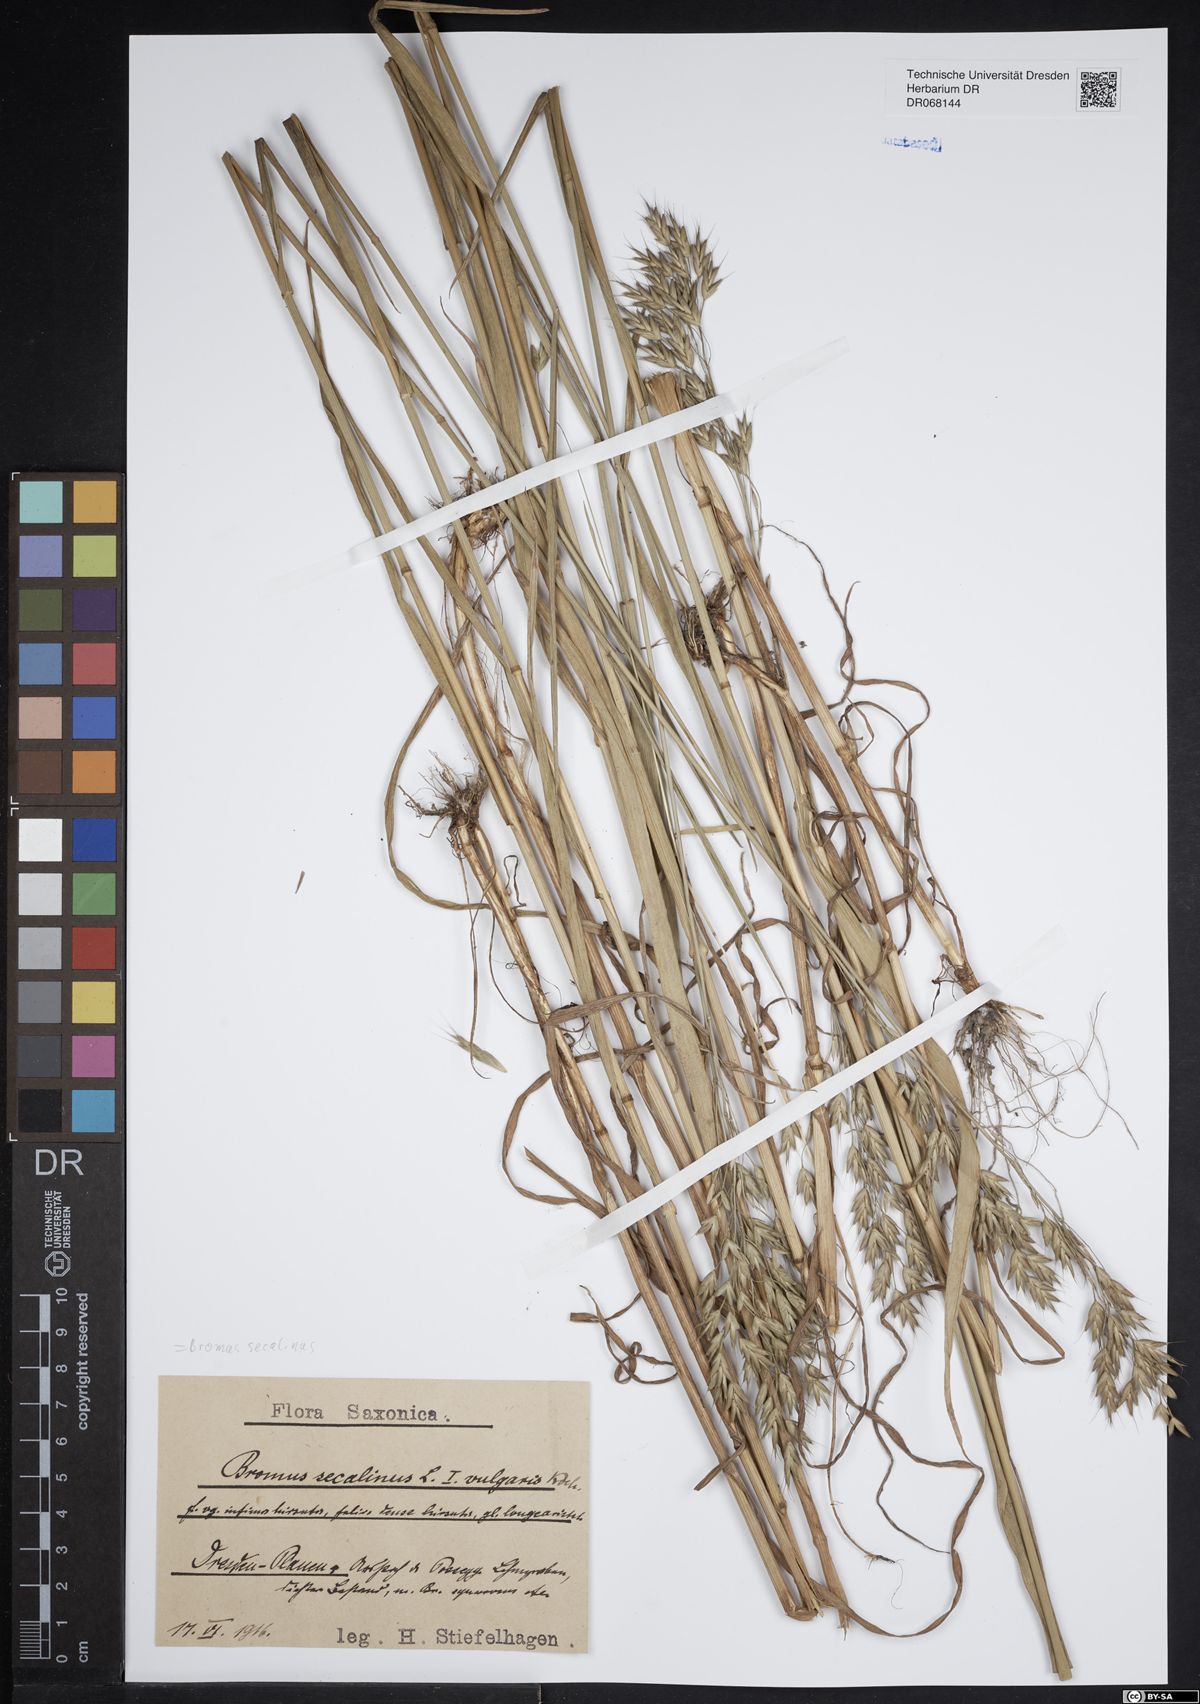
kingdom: Plantae
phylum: Tracheophyta
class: Liliopsida
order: Poales
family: Poaceae
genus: Bromus
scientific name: Bromus secalinus
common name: Rye brome
